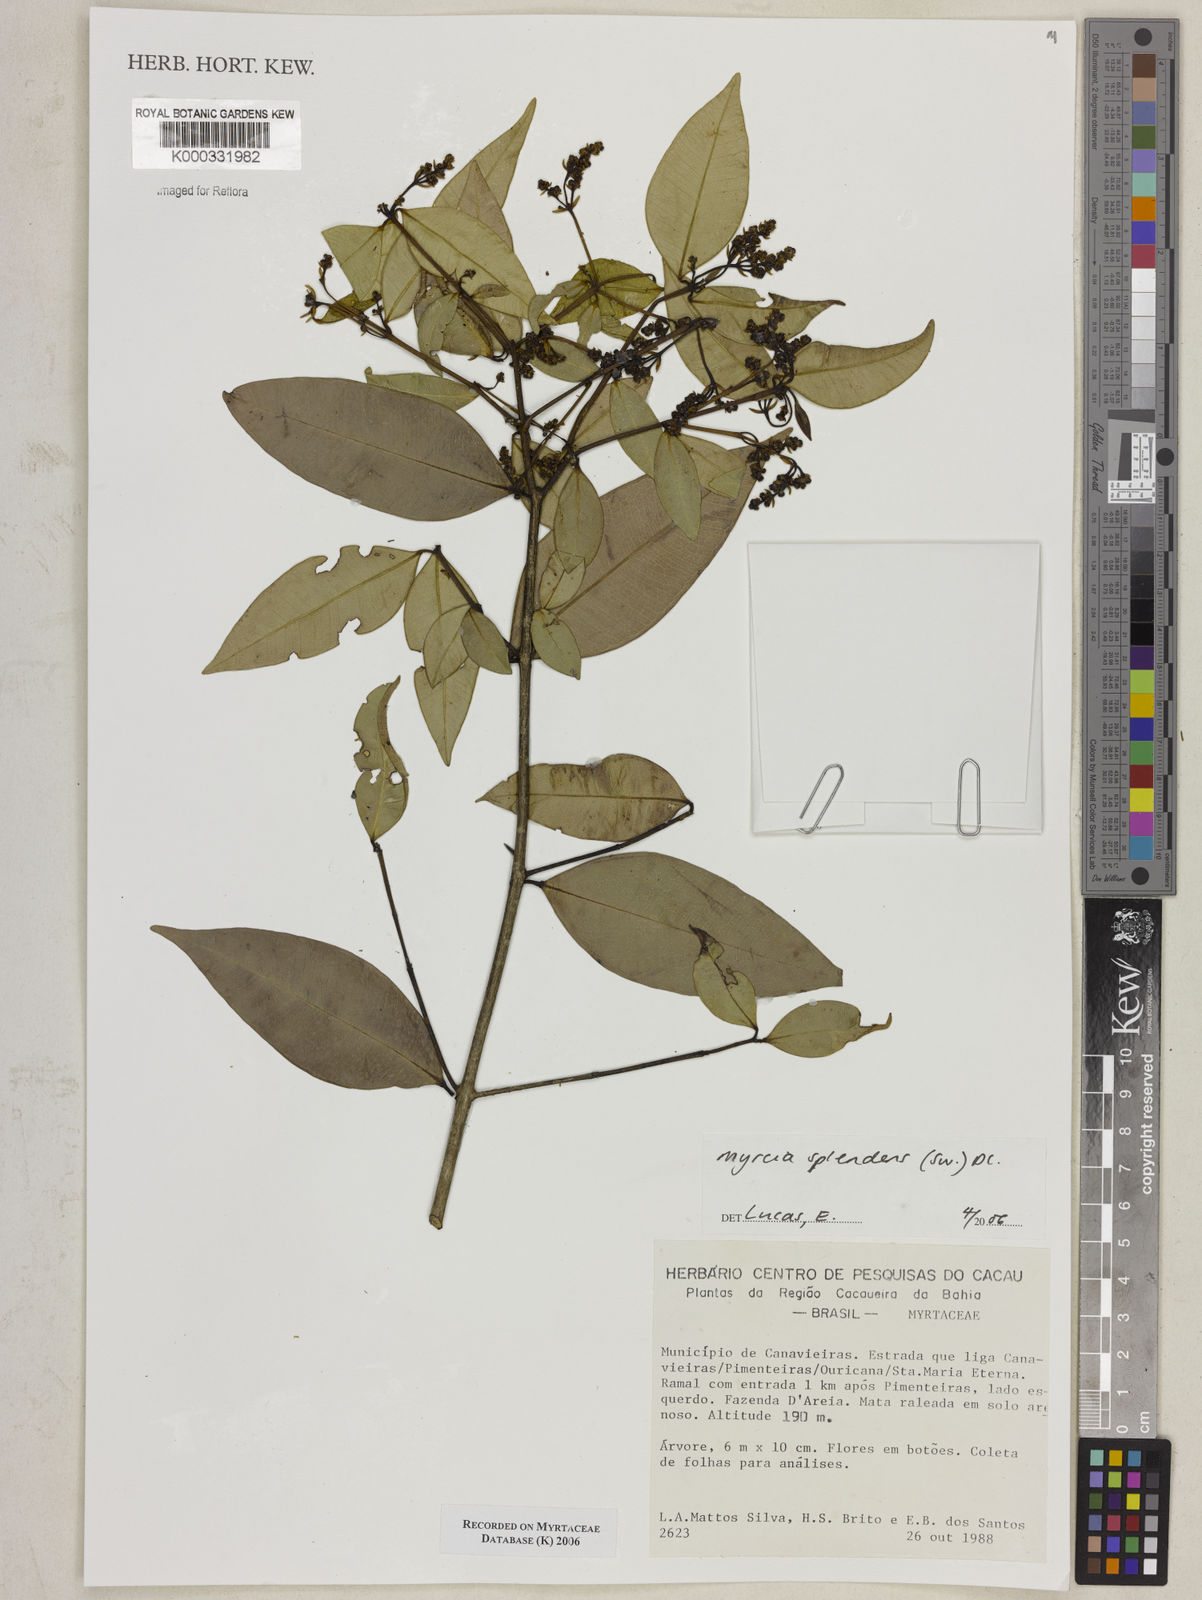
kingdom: Plantae
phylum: Tracheophyta
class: Magnoliopsida
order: Myrtales
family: Myrtaceae
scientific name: Myrtaceae
